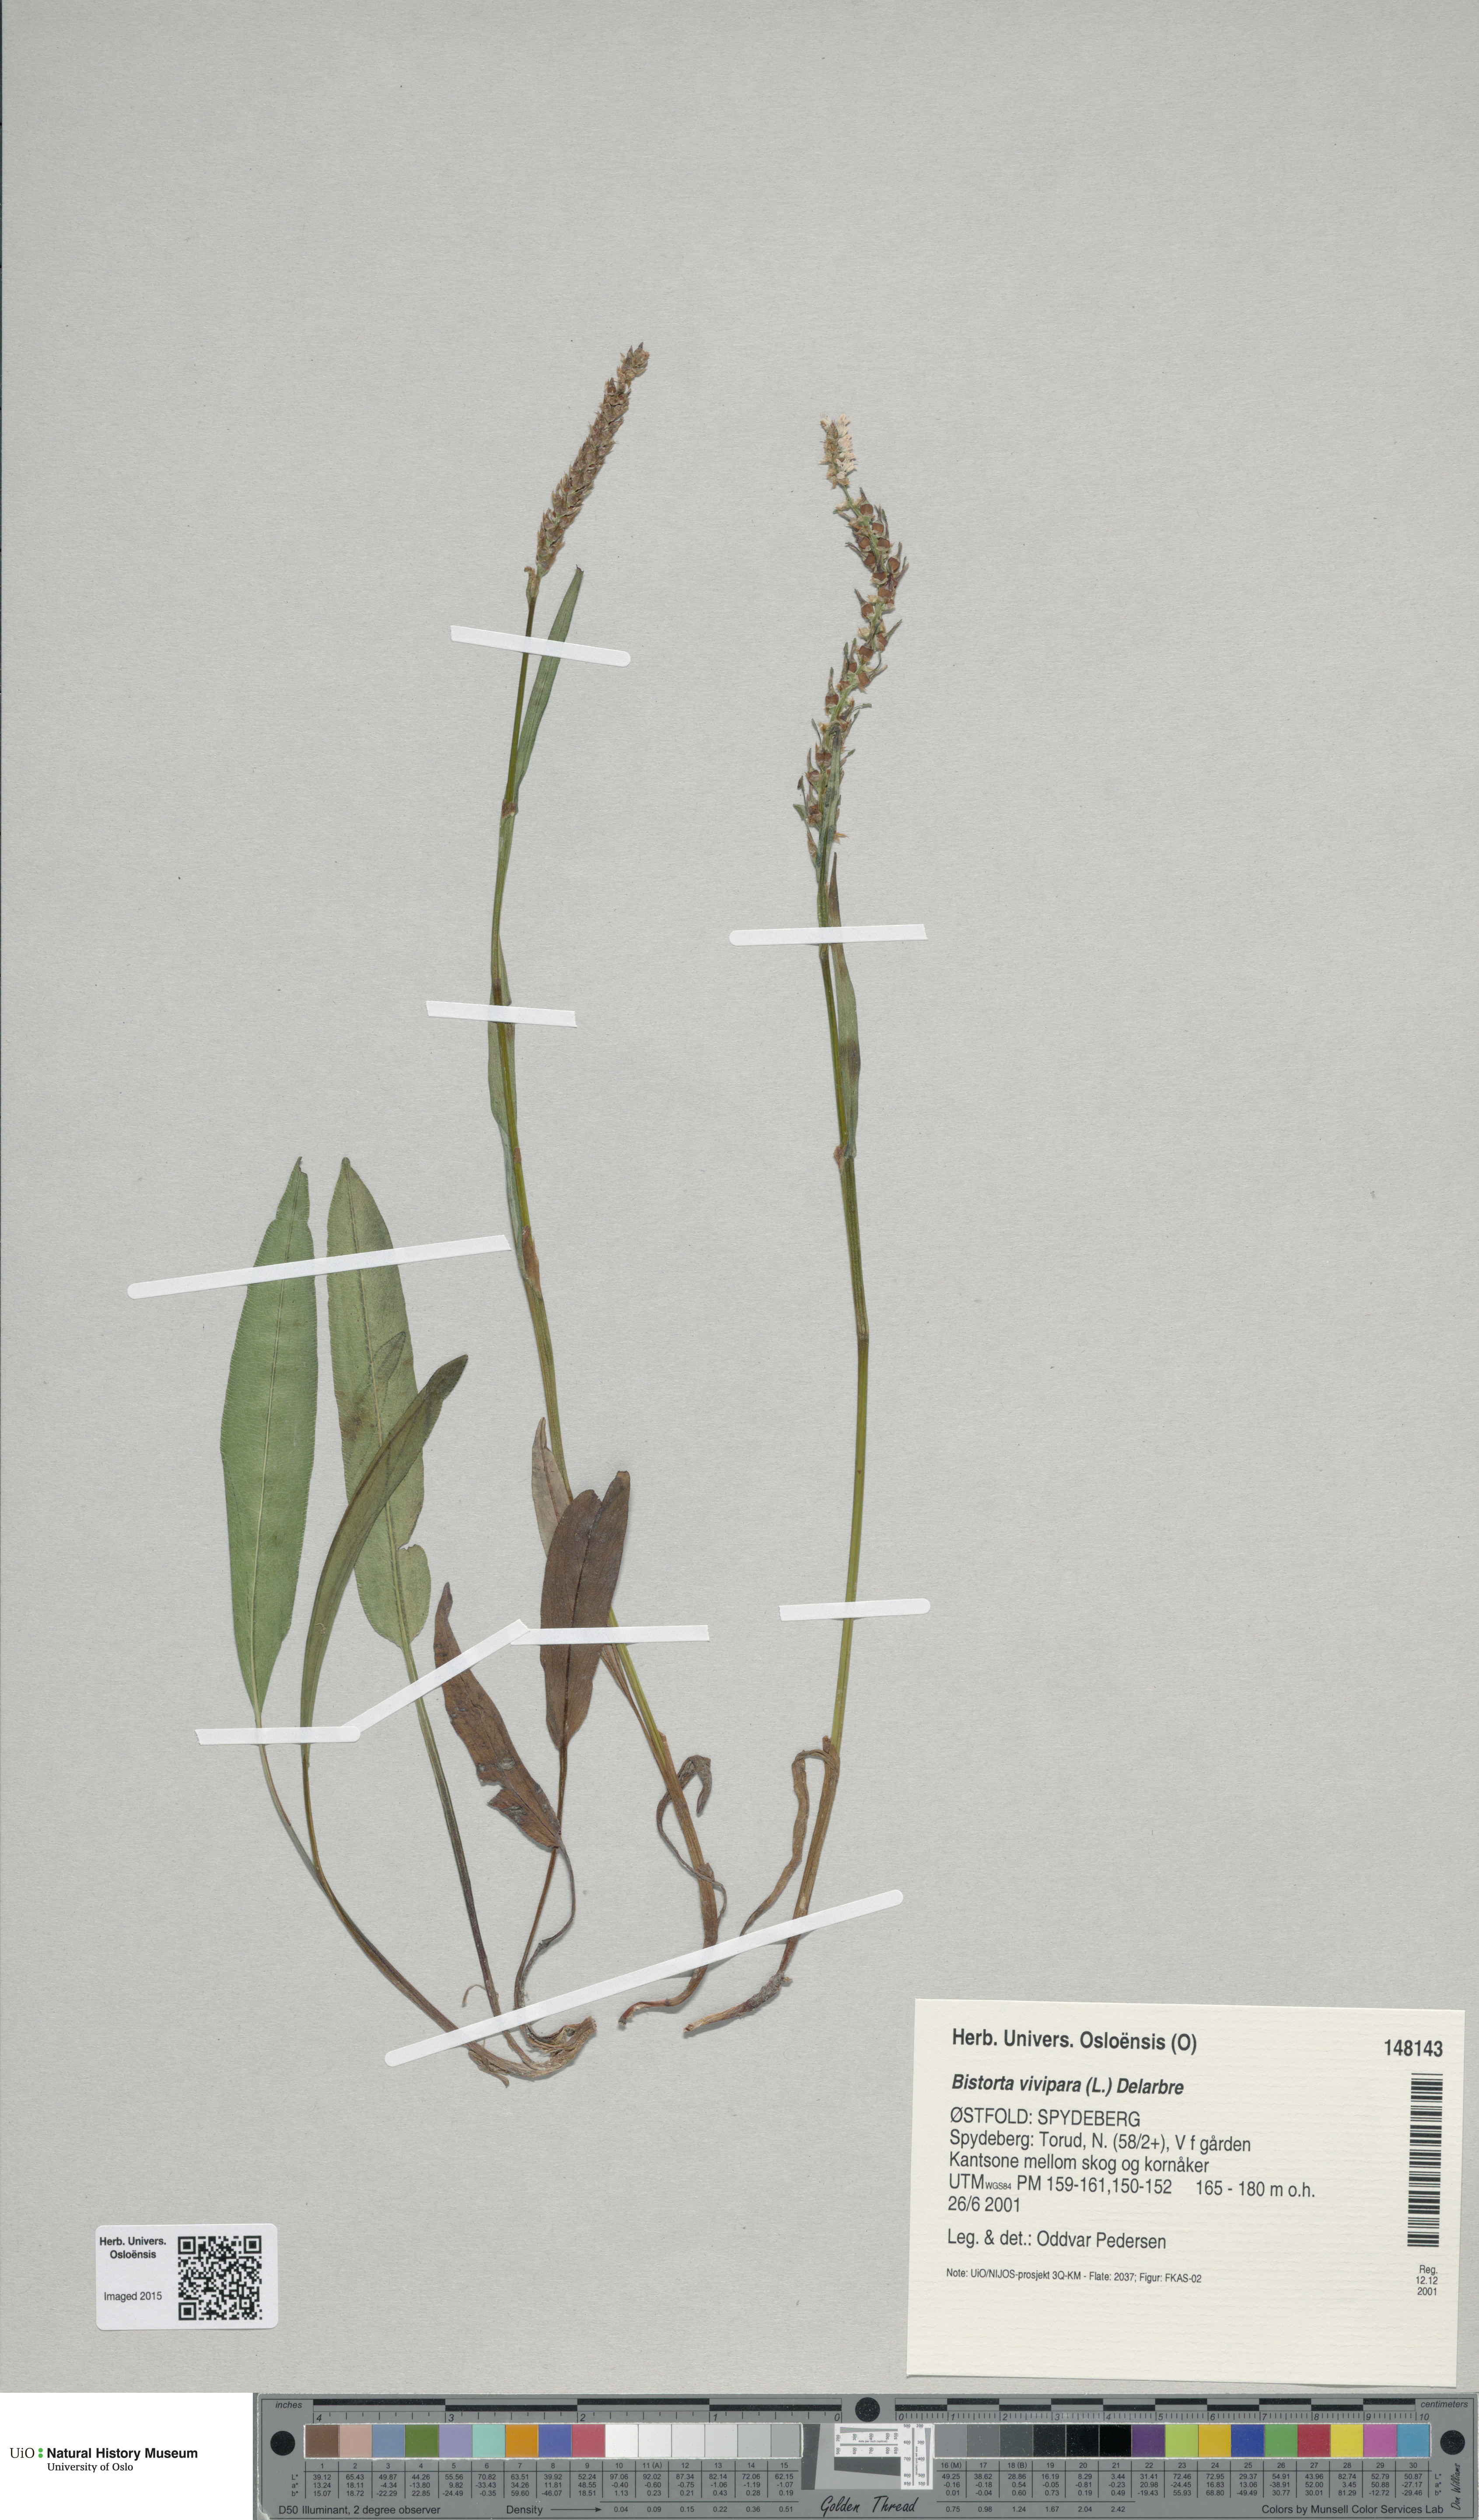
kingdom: Plantae
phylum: Tracheophyta
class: Magnoliopsida
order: Caryophyllales
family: Polygonaceae
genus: Bistorta
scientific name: Bistorta vivipara
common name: Alpine bistort
